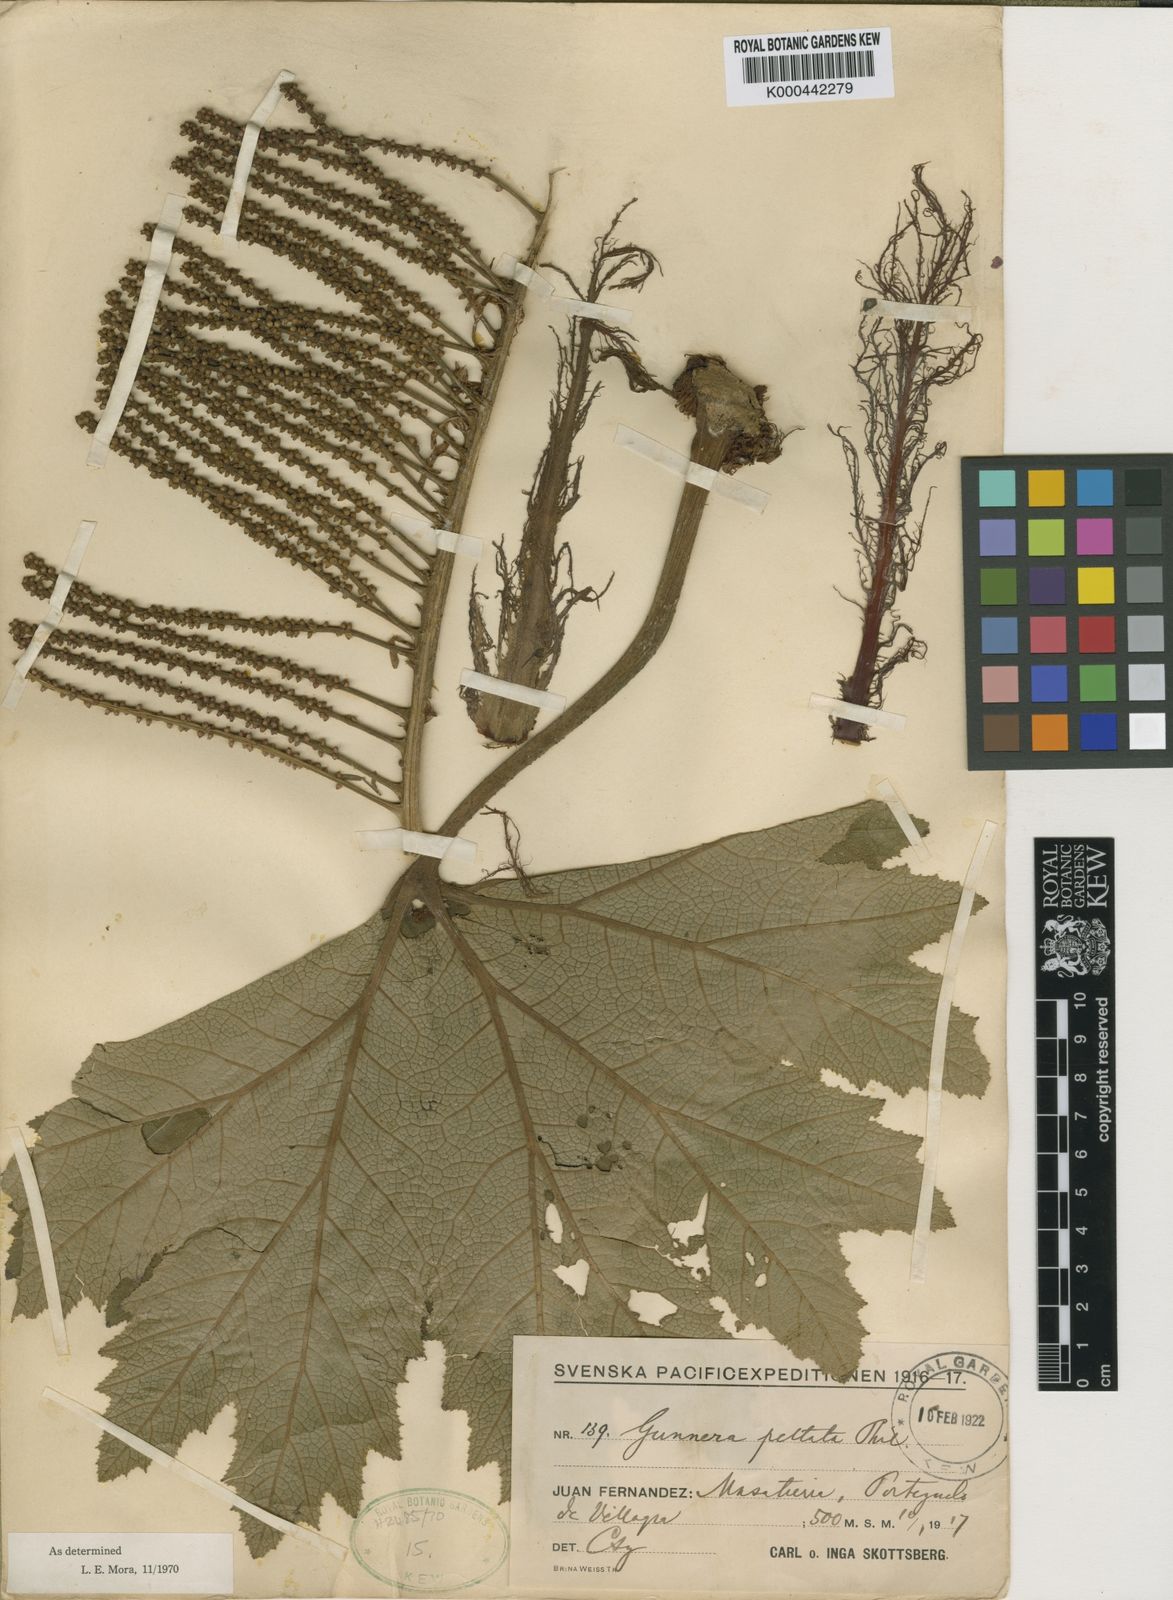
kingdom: Plantae
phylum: Tracheophyta
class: Magnoliopsida
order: Gunnerales
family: Gunneraceae
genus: Gunnera
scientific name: Gunnera peltata
